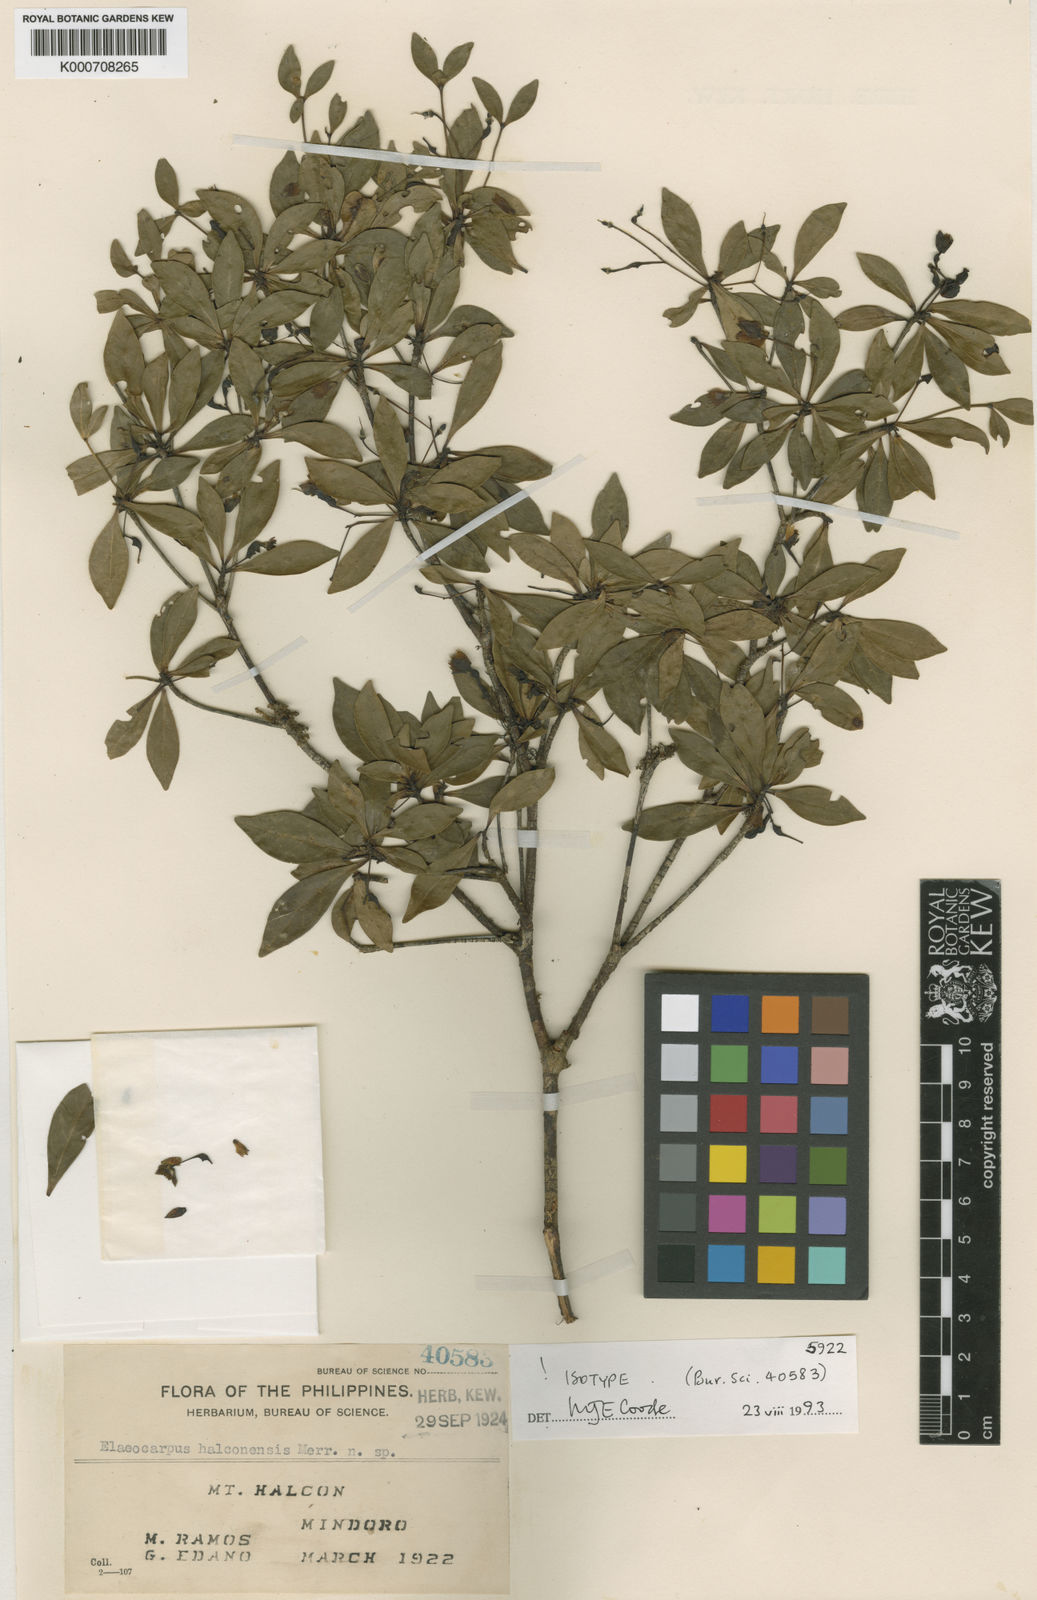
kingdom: Plantae
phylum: Tracheophyta
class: Magnoliopsida
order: Oxalidales
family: Elaeocarpaceae
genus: Elaeocarpus
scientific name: Elaeocarpus halconensis
